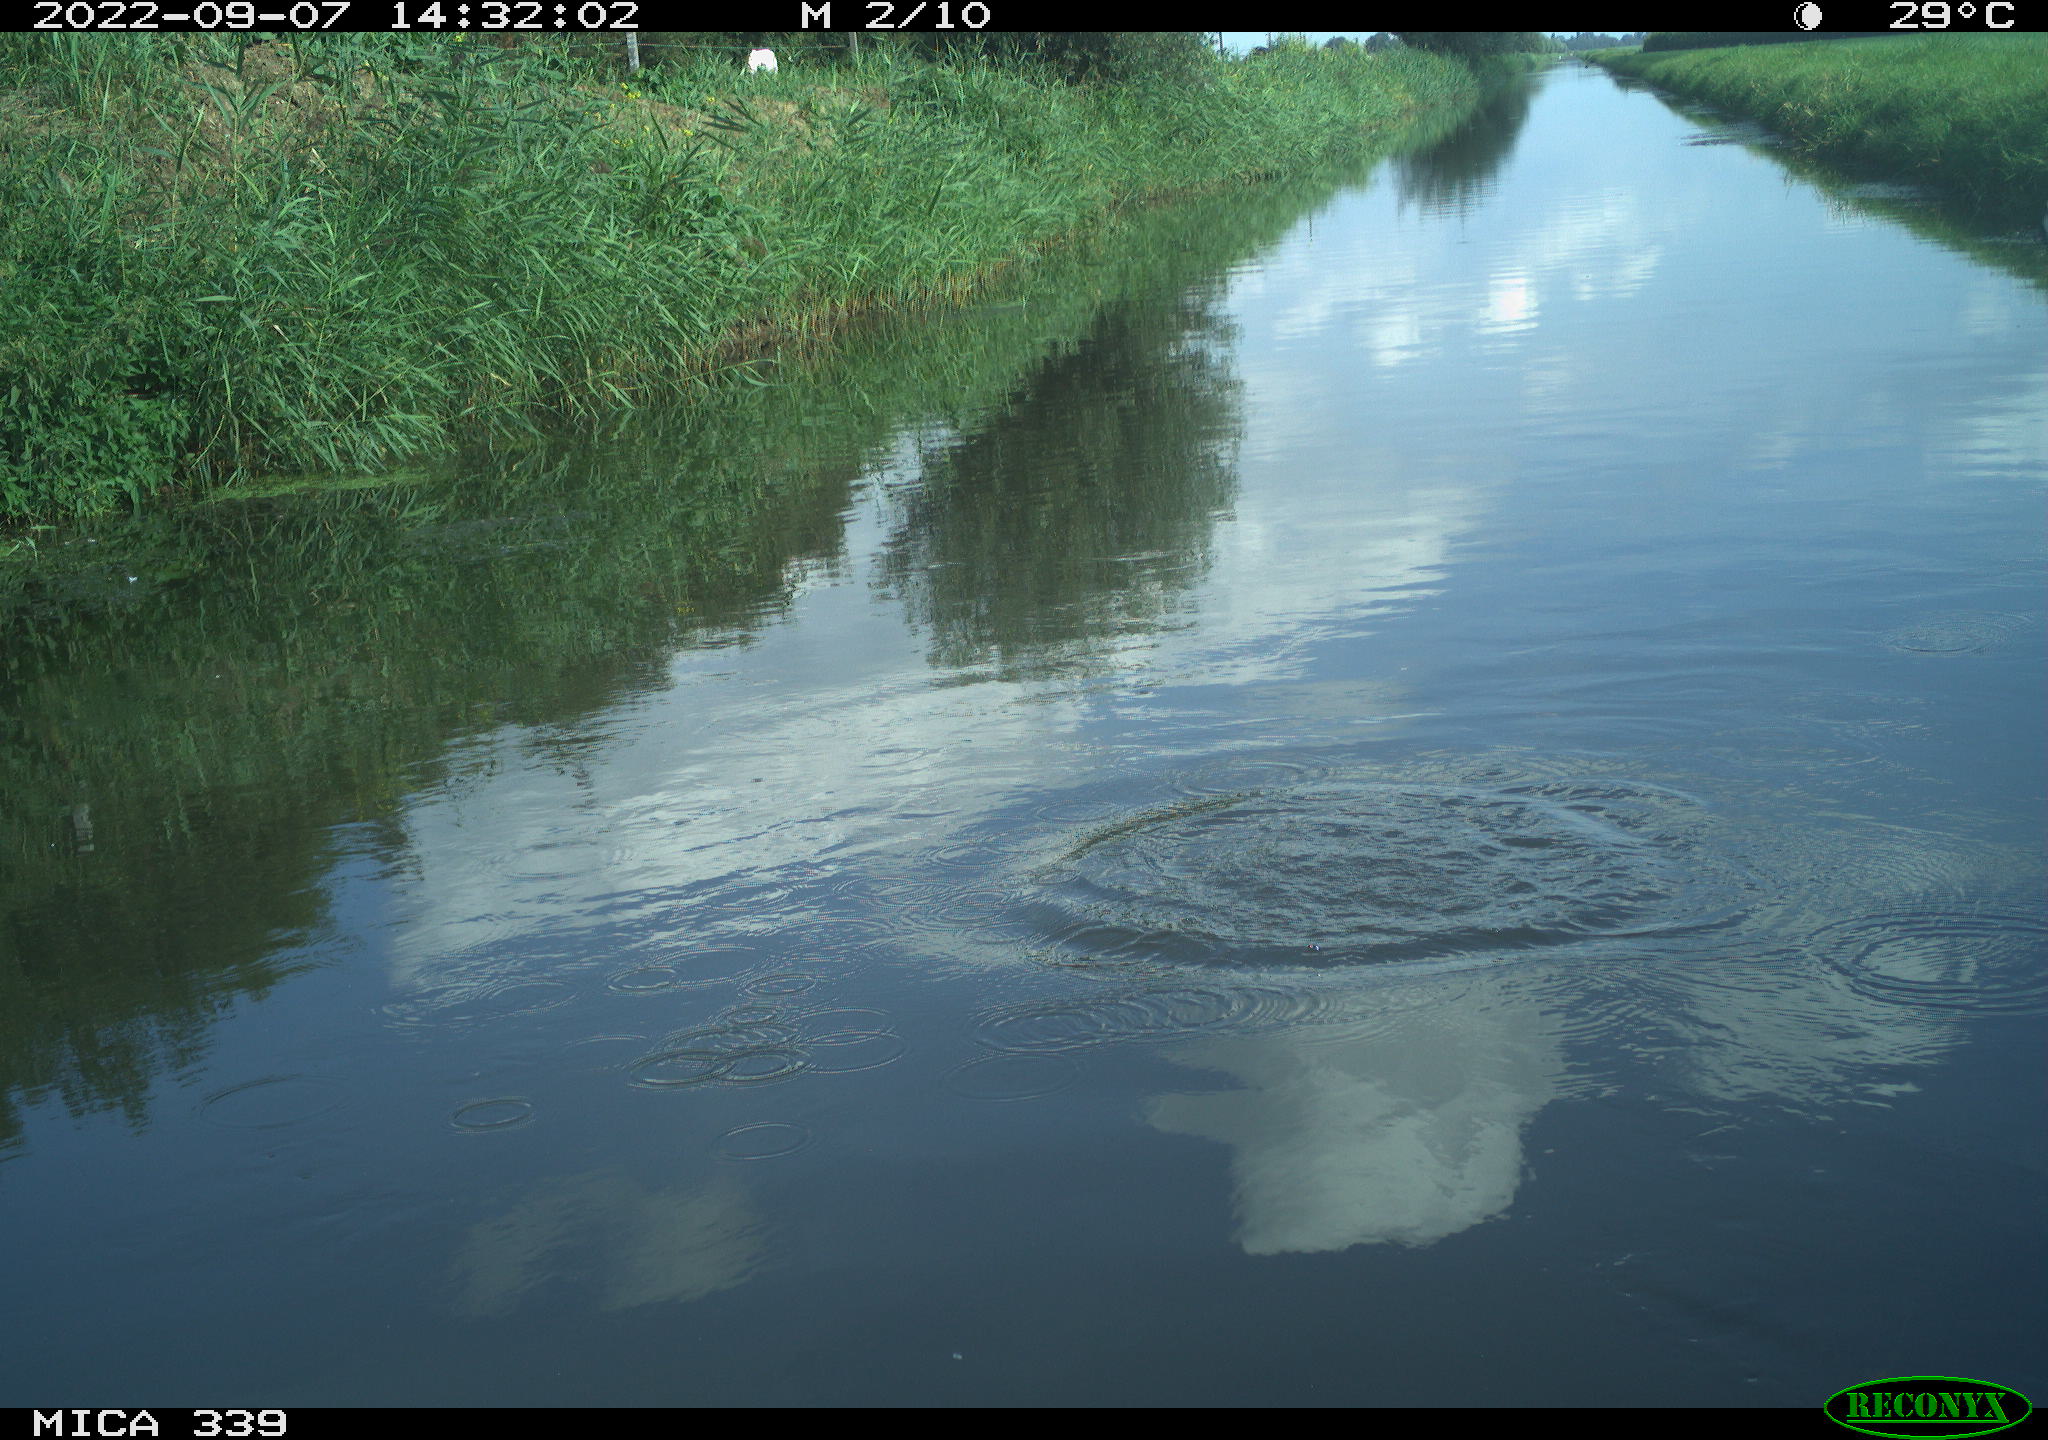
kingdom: Animalia
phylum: Chordata
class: Aves
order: Charadriiformes
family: Laridae
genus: Chroicocephalus
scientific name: Chroicocephalus ridibundus
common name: Black-headed gull
